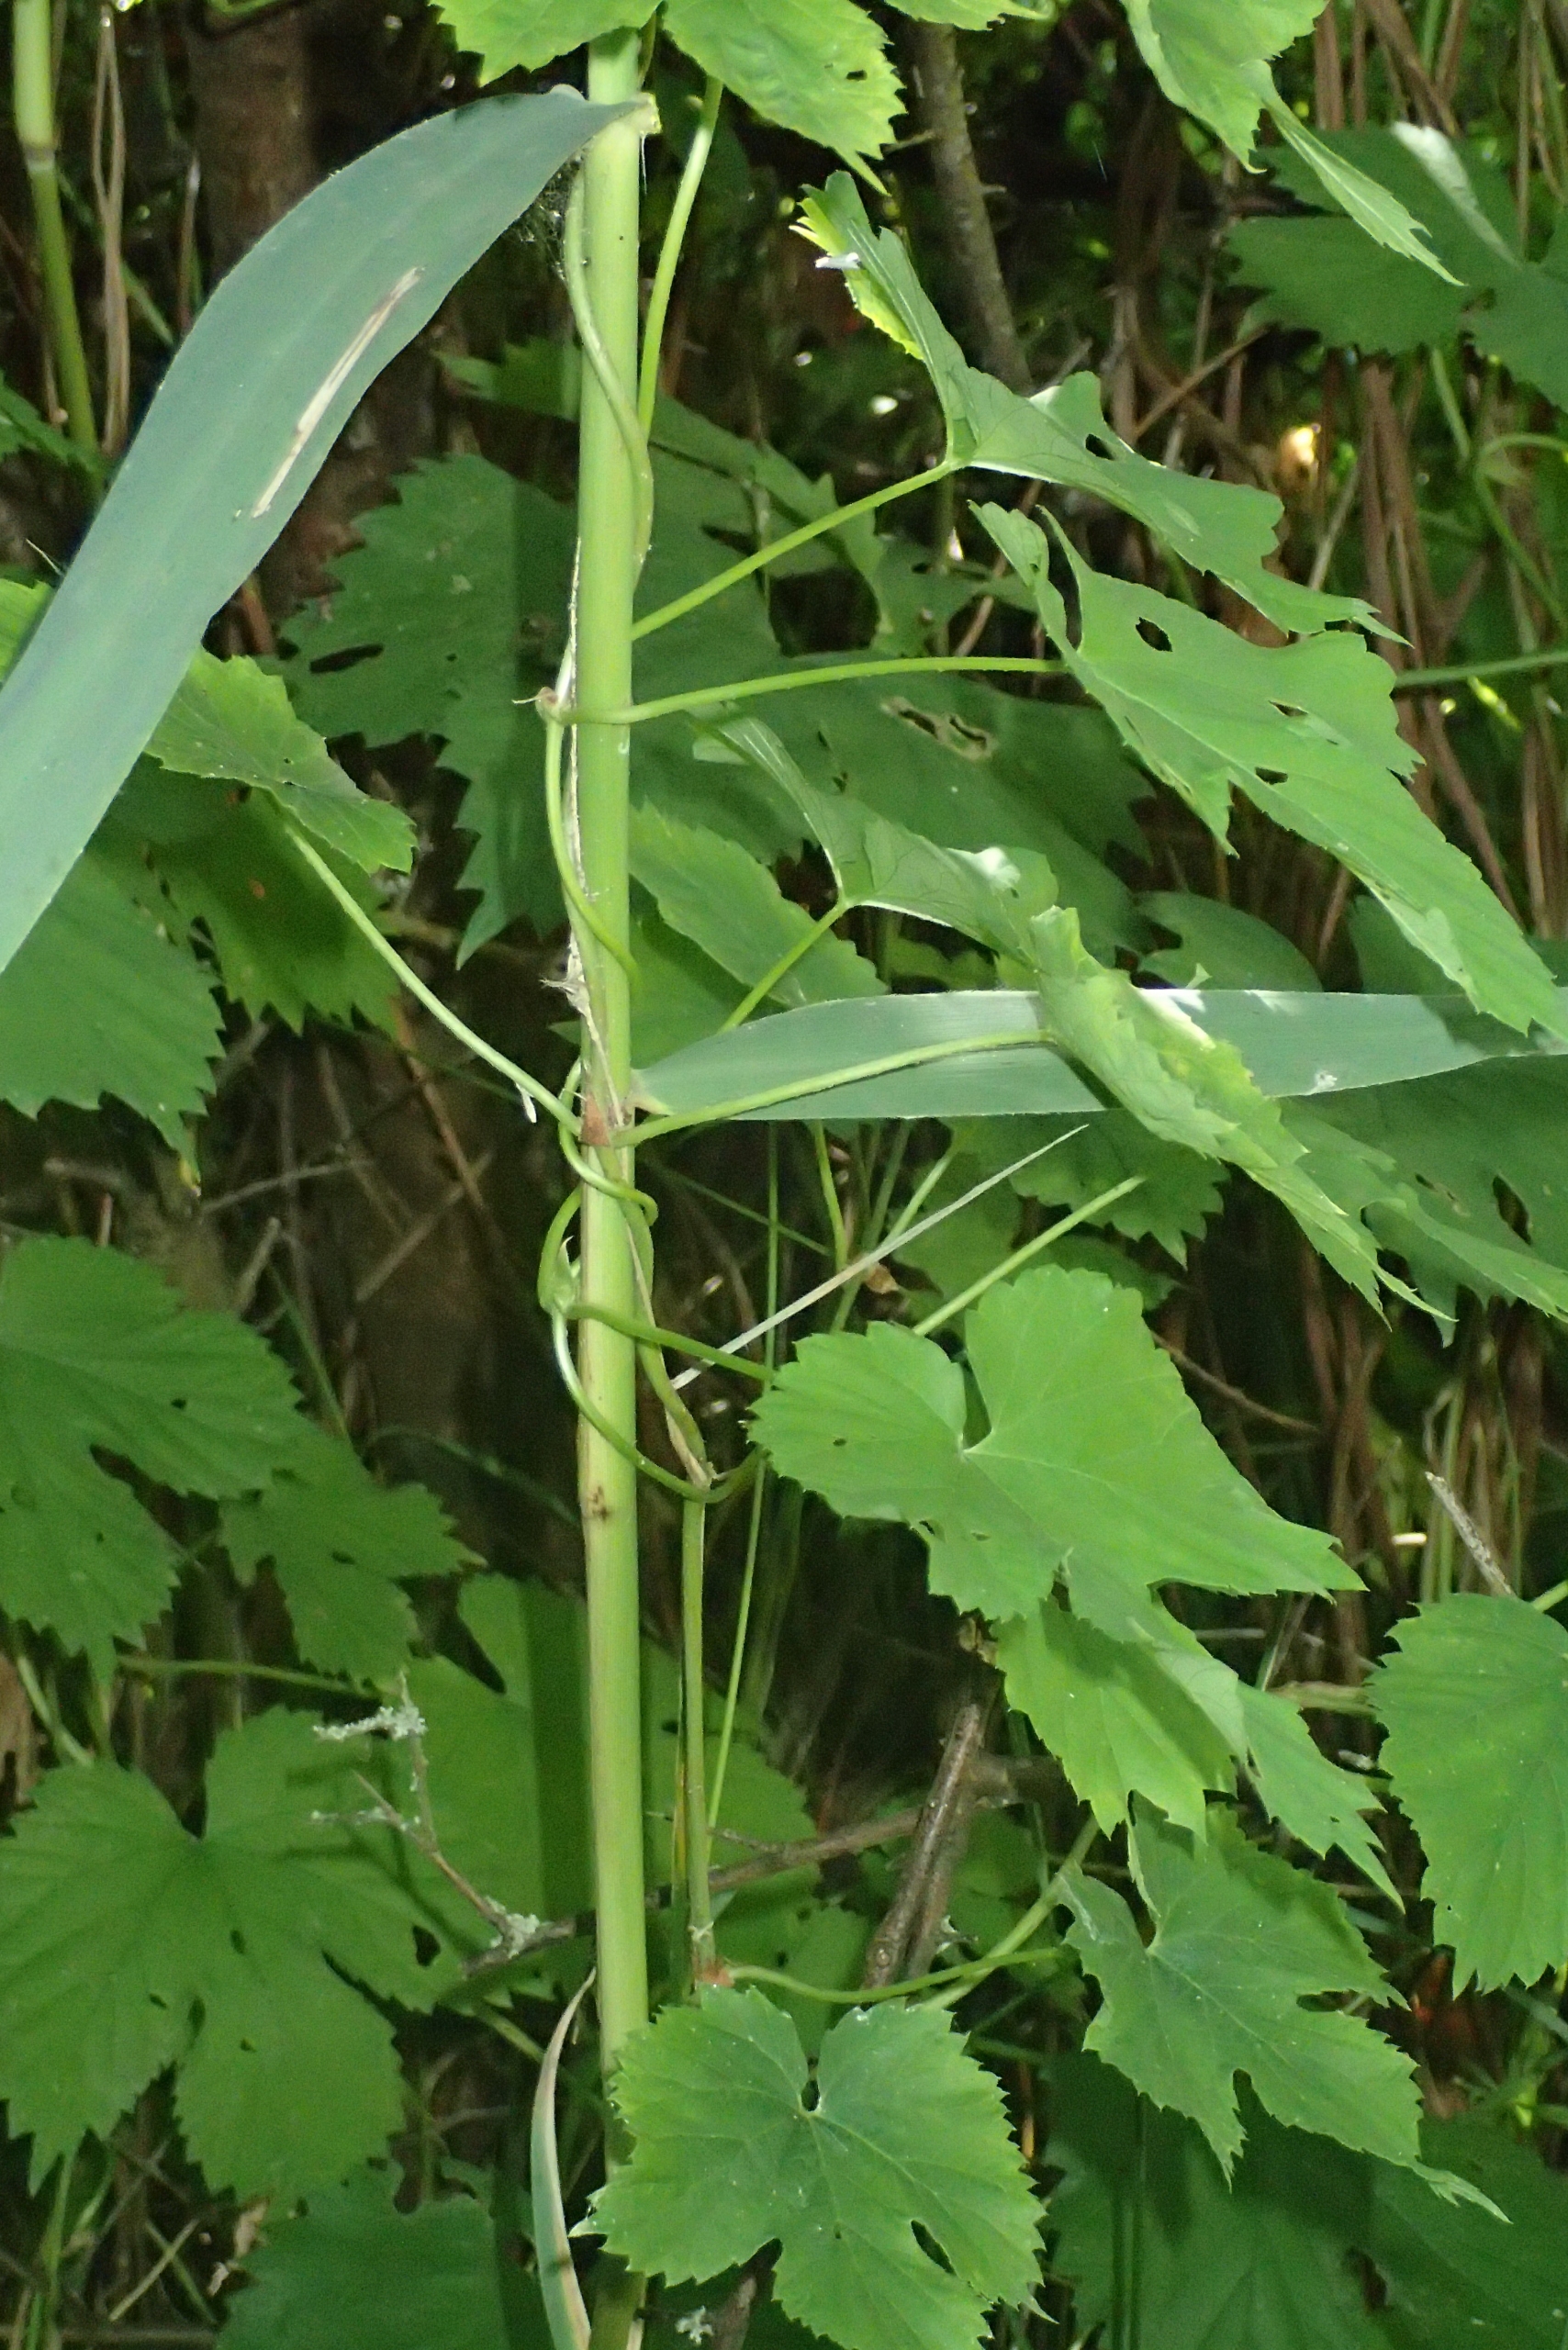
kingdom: Plantae
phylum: Tracheophyta
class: Magnoliopsida
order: Rosales
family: Cannabaceae
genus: Humulus
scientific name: Humulus lupulus
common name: Humle
